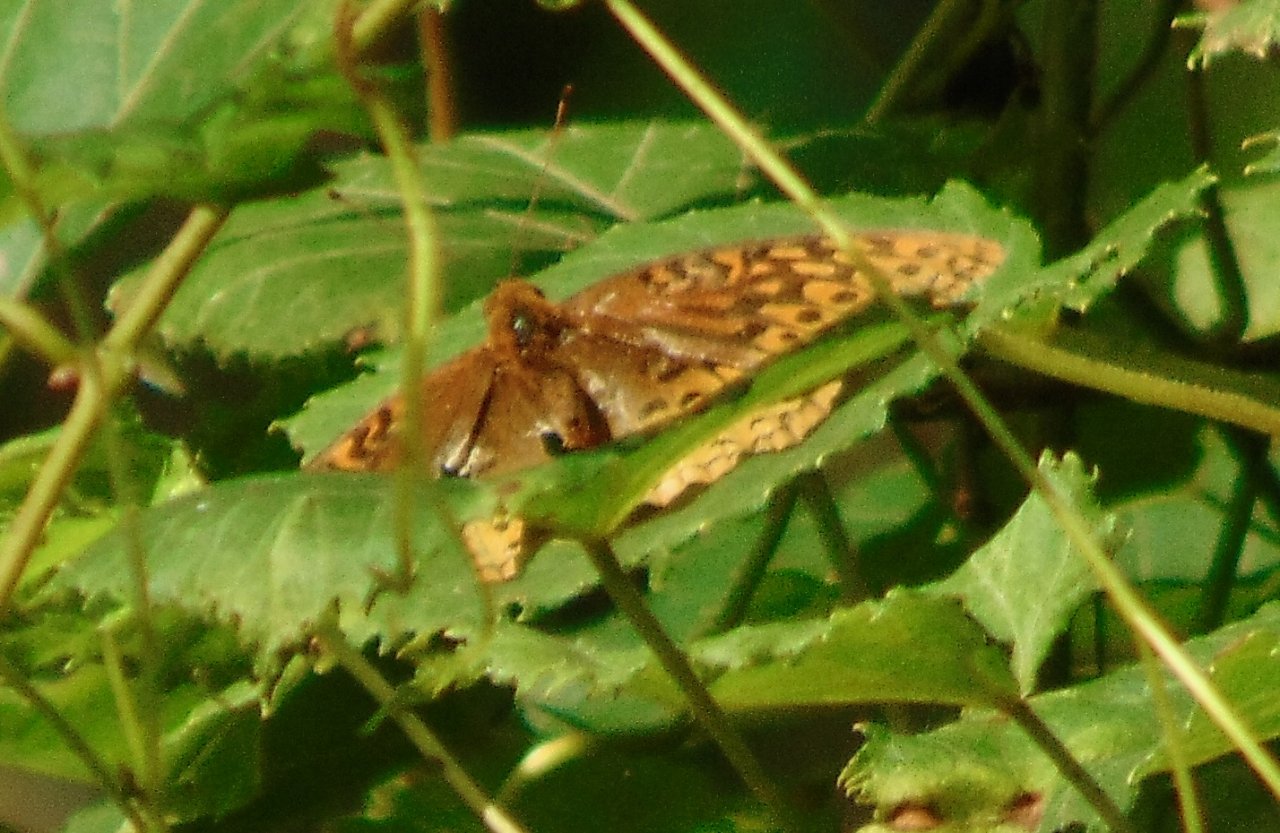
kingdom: Animalia
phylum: Arthropoda
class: Insecta
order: Lepidoptera
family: Nymphalidae
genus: Speyeria
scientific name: Speyeria cybele
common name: Great Spangled Fritillary
